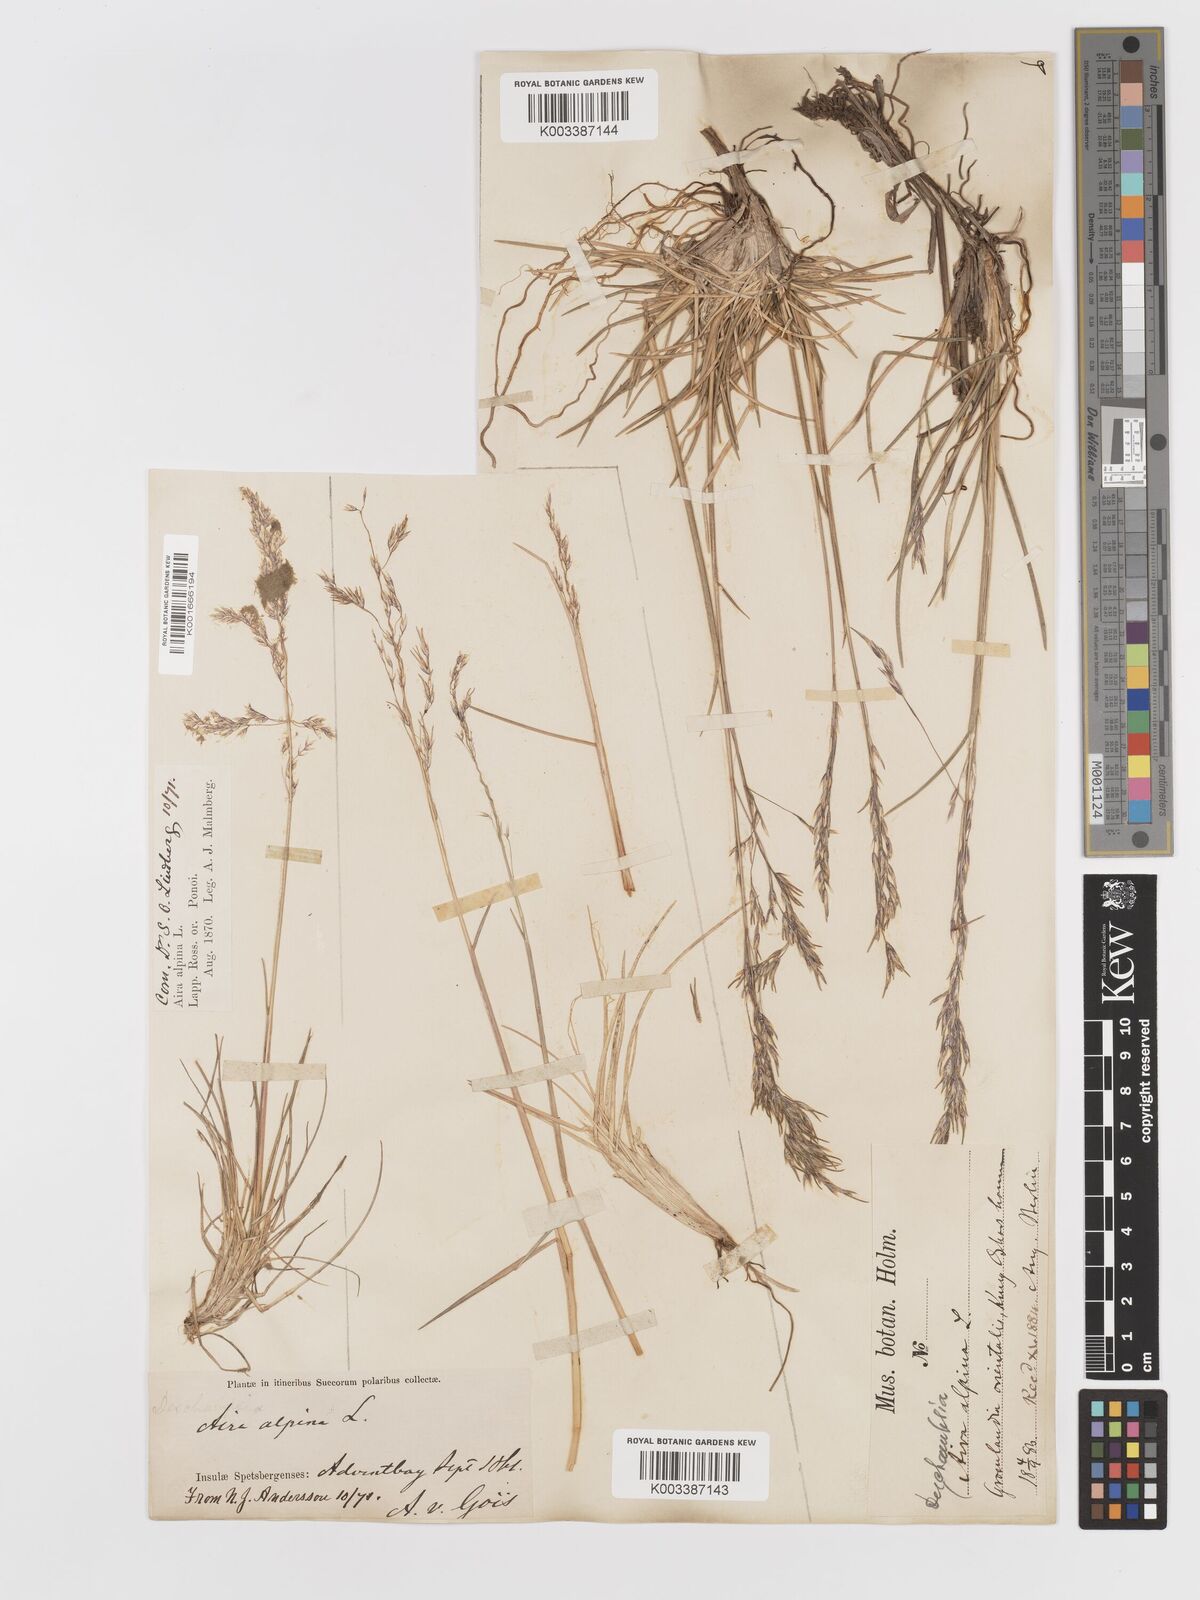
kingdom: Plantae
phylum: Tracheophyta
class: Liliopsida
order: Poales
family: Poaceae
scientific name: Poaceae
